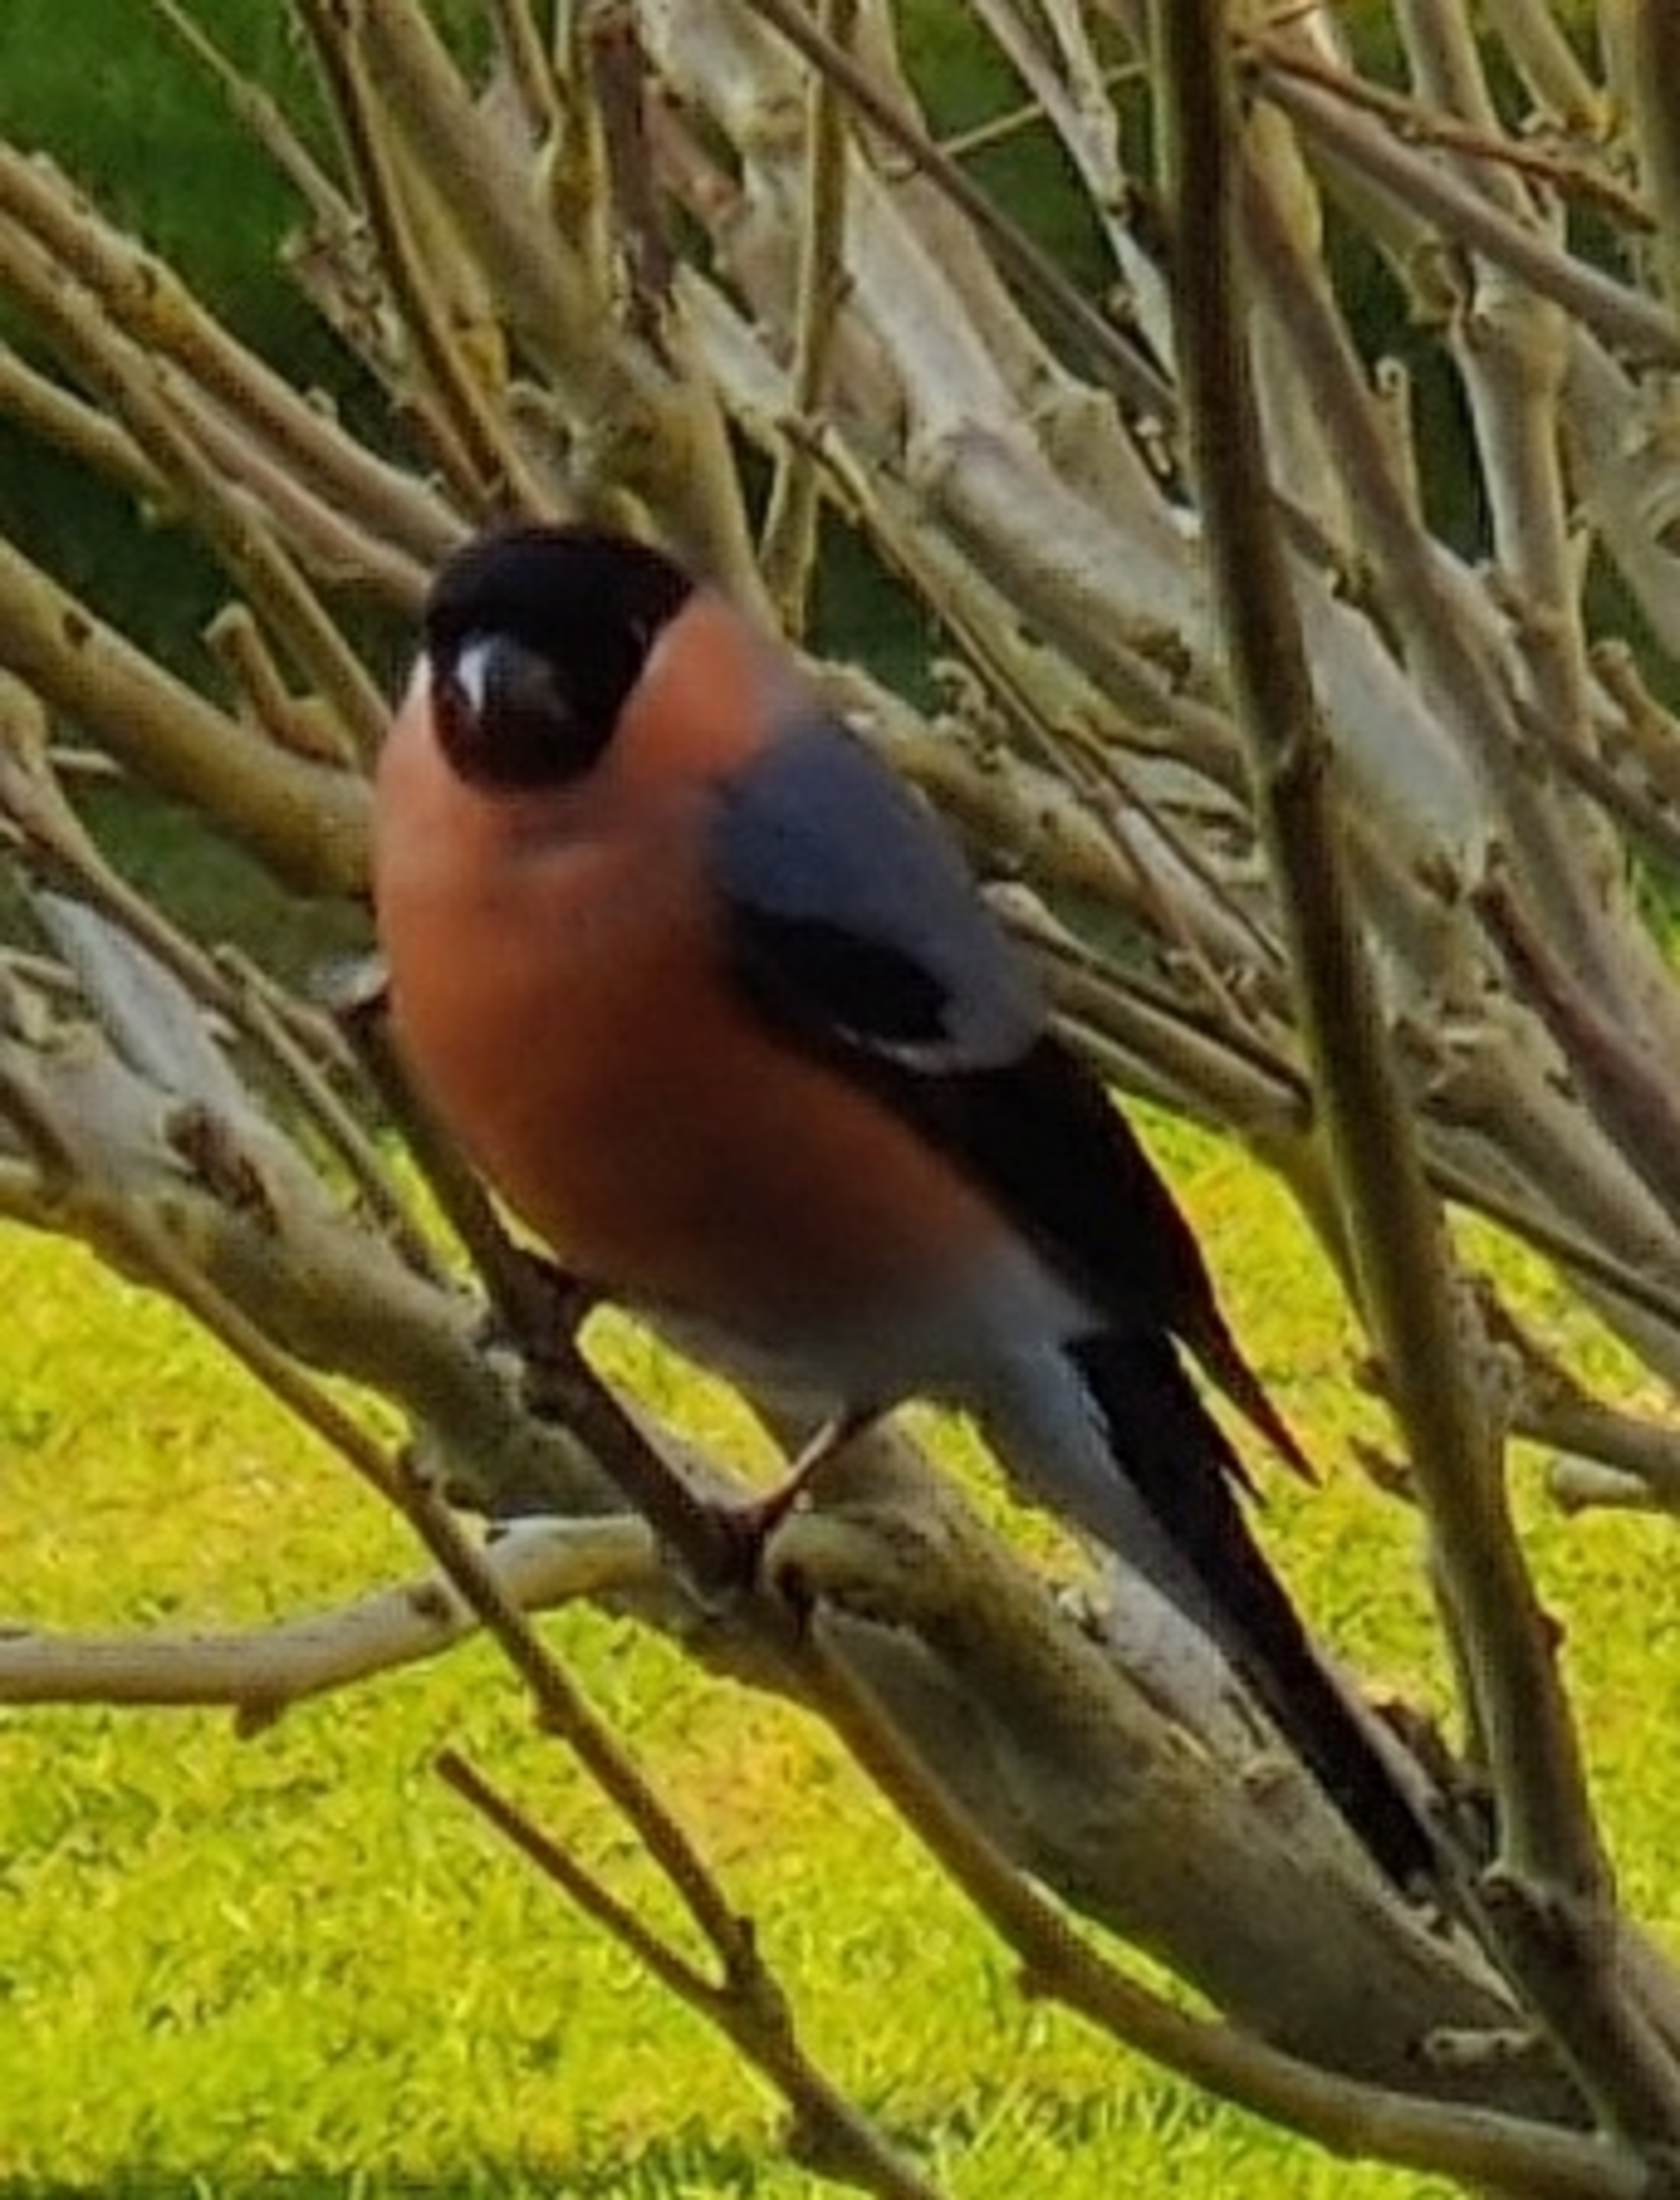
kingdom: Animalia
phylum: Chordata
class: Aves
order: Passeriformes
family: Fringillidae
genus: Pyrrhula
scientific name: Pyrrhula pyrrhula
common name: Dompap
